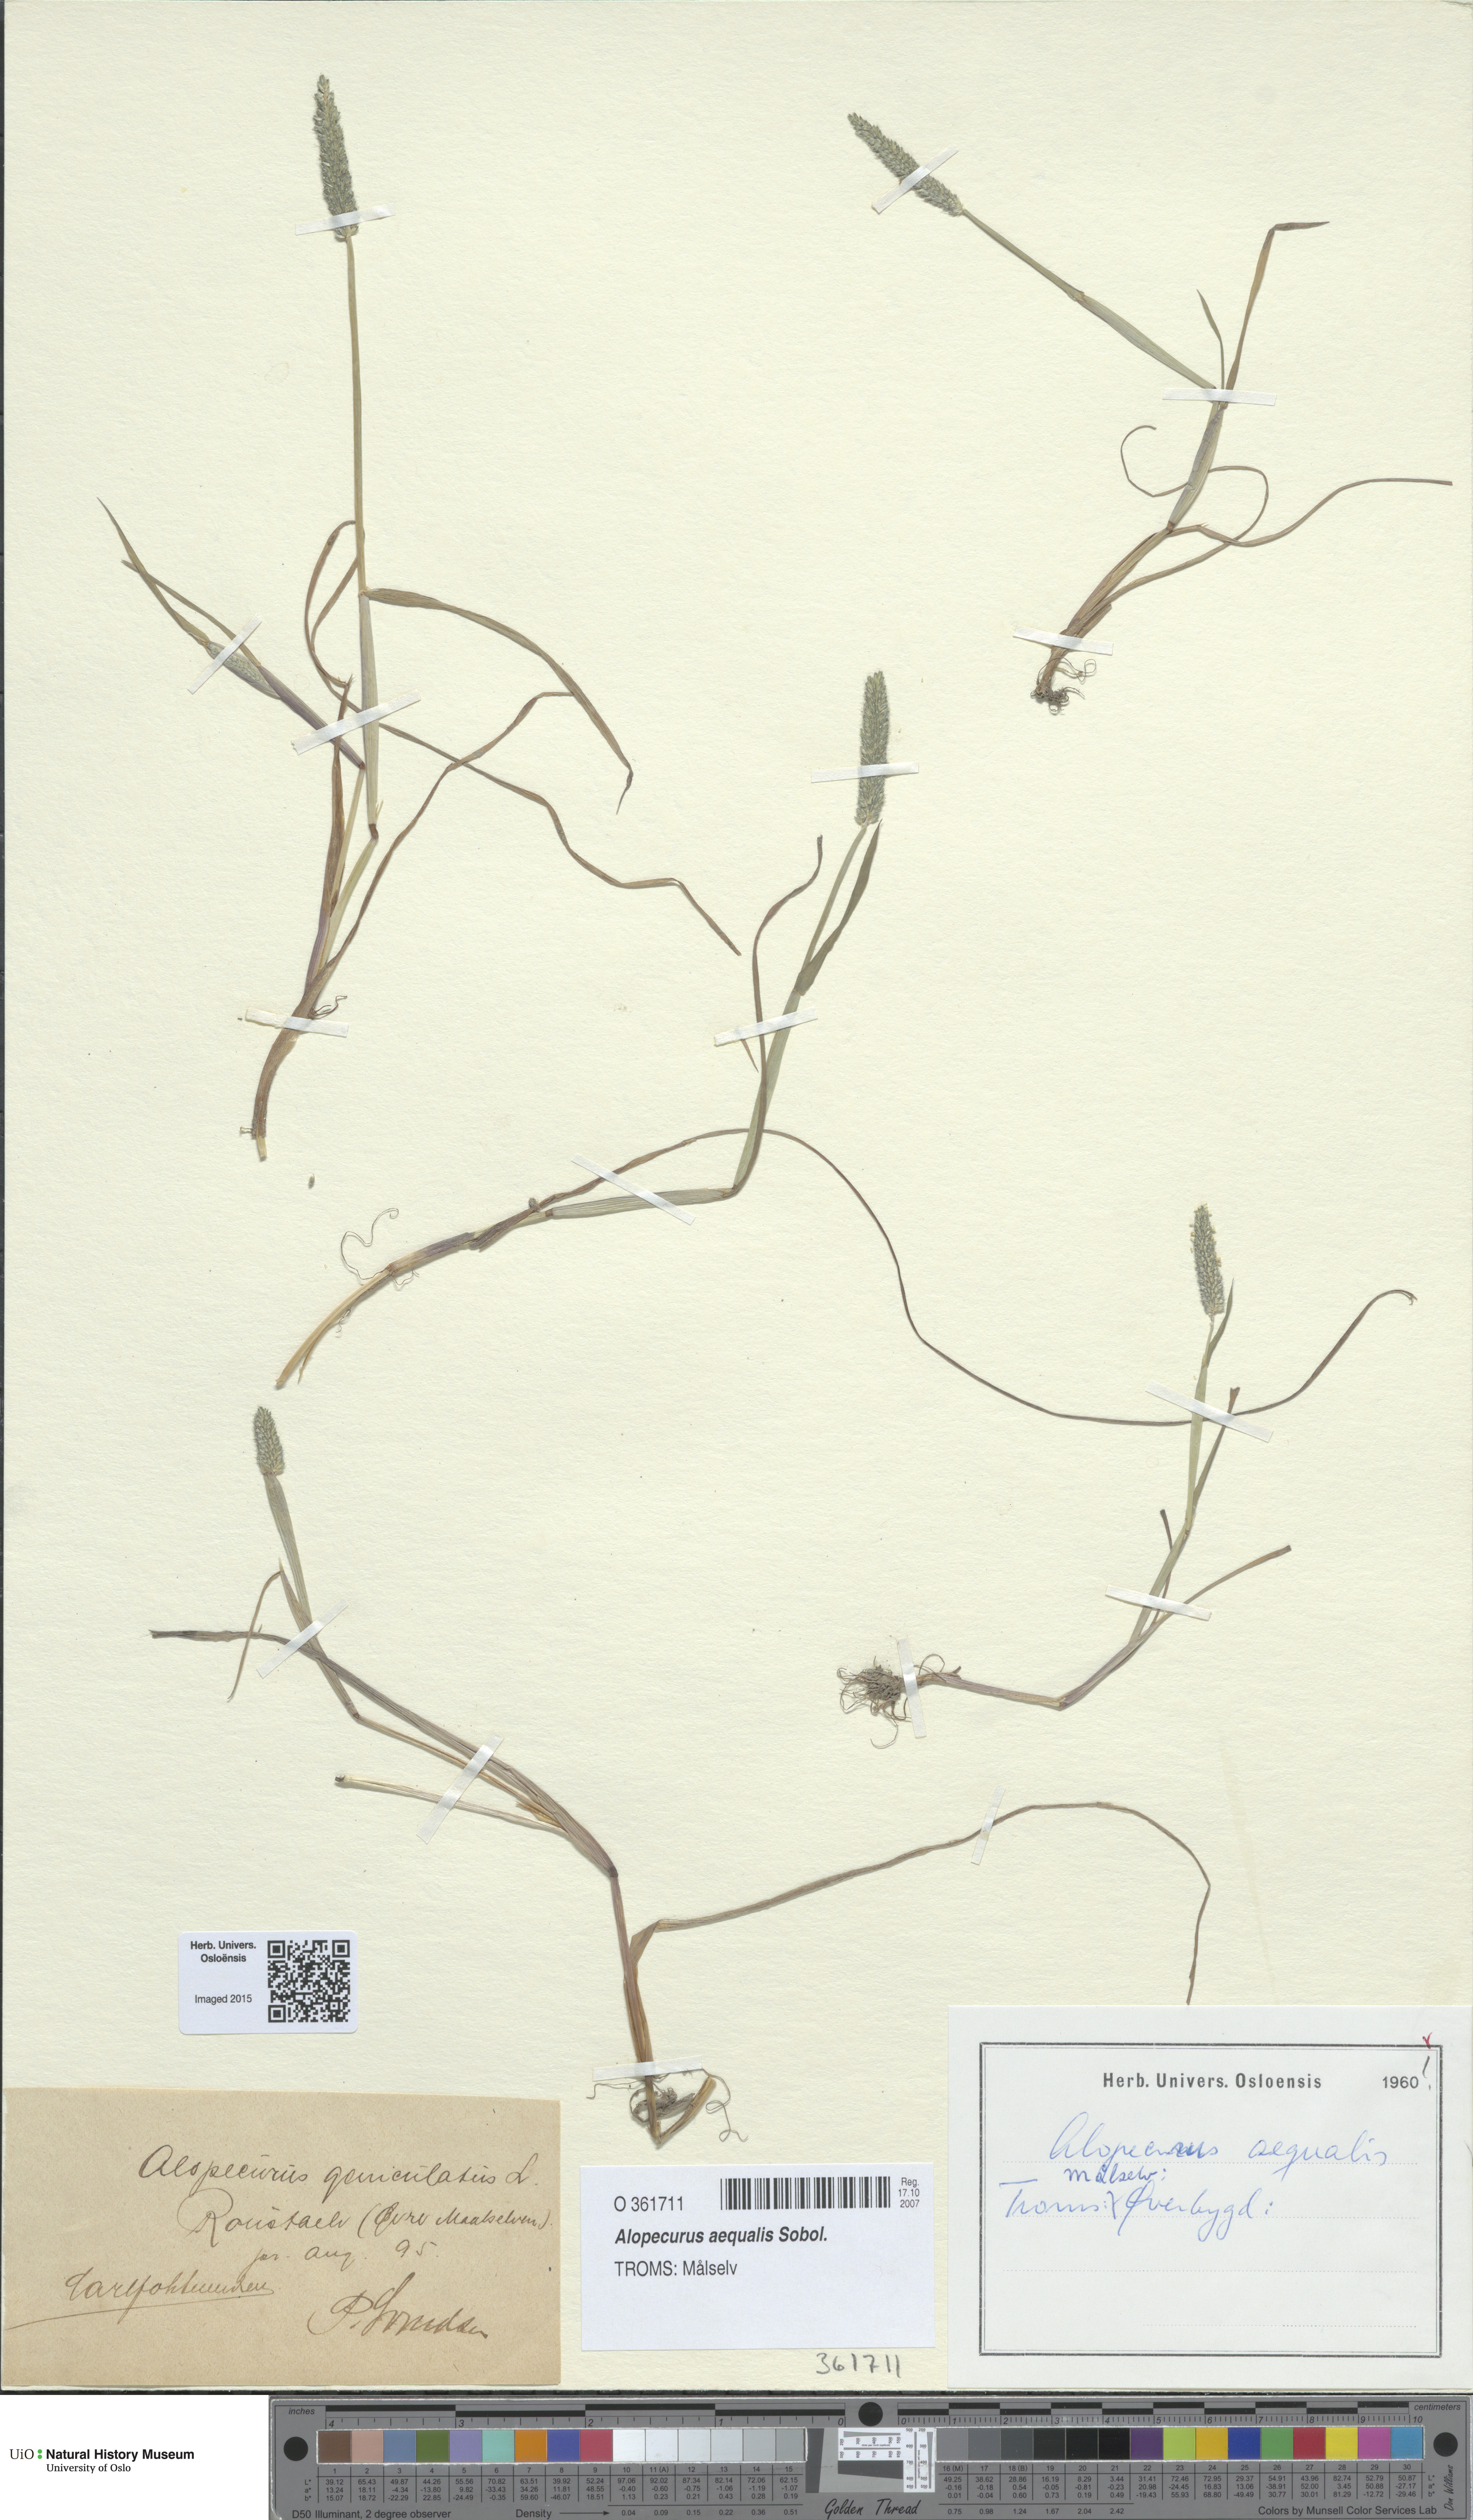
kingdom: Plantae
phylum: Tracheophyta
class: Liliopsida
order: Poales
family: Poaceae
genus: Alopecurus
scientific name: Alopecurus aequalis
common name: Orange foxtail
